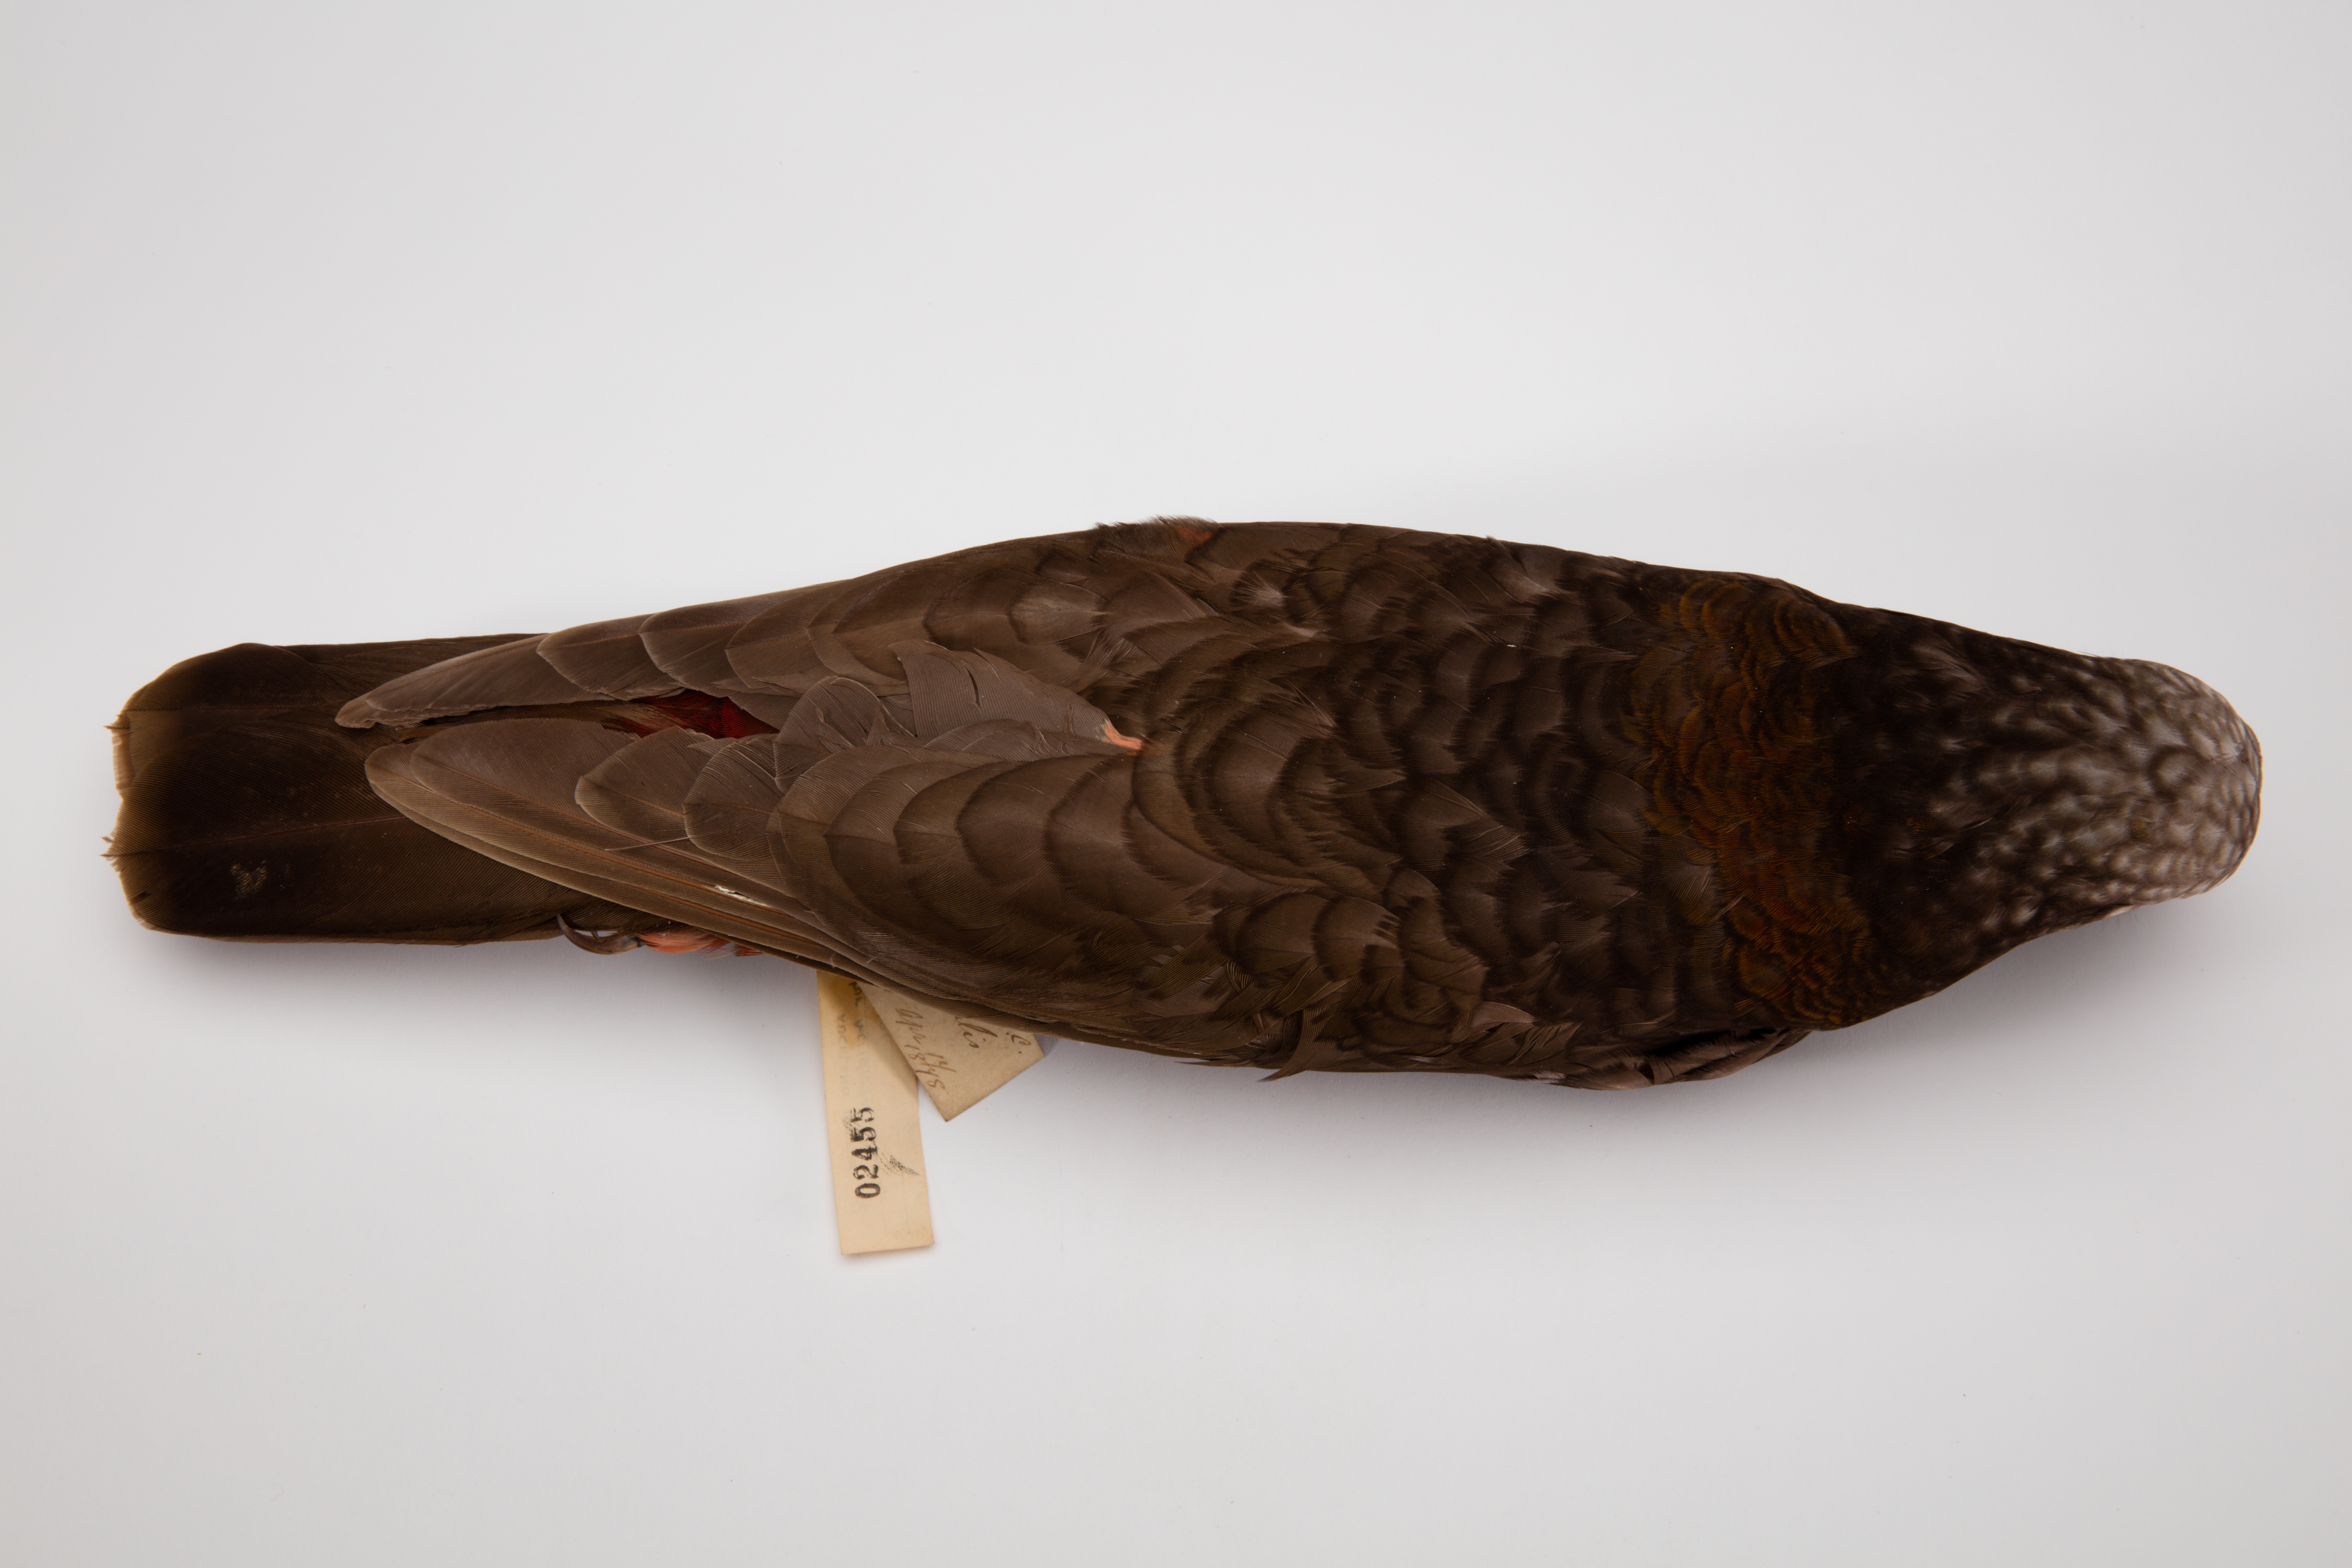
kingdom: Animalia
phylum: Chordata
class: Aves
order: Psittaciformes
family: Psittacidae
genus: Nestor
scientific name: Nestor meridionalis
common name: New zealand kaka
